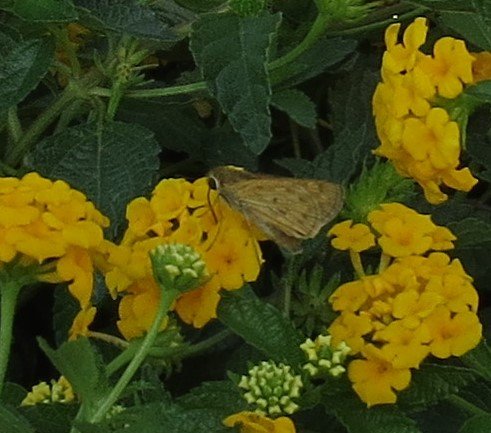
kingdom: Animalia
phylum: Arthropoda
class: Insecta
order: Lepidoptera
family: Hesperiidae
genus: Hylephila
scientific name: Hylephila phyleus
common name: Fiery Skipper
